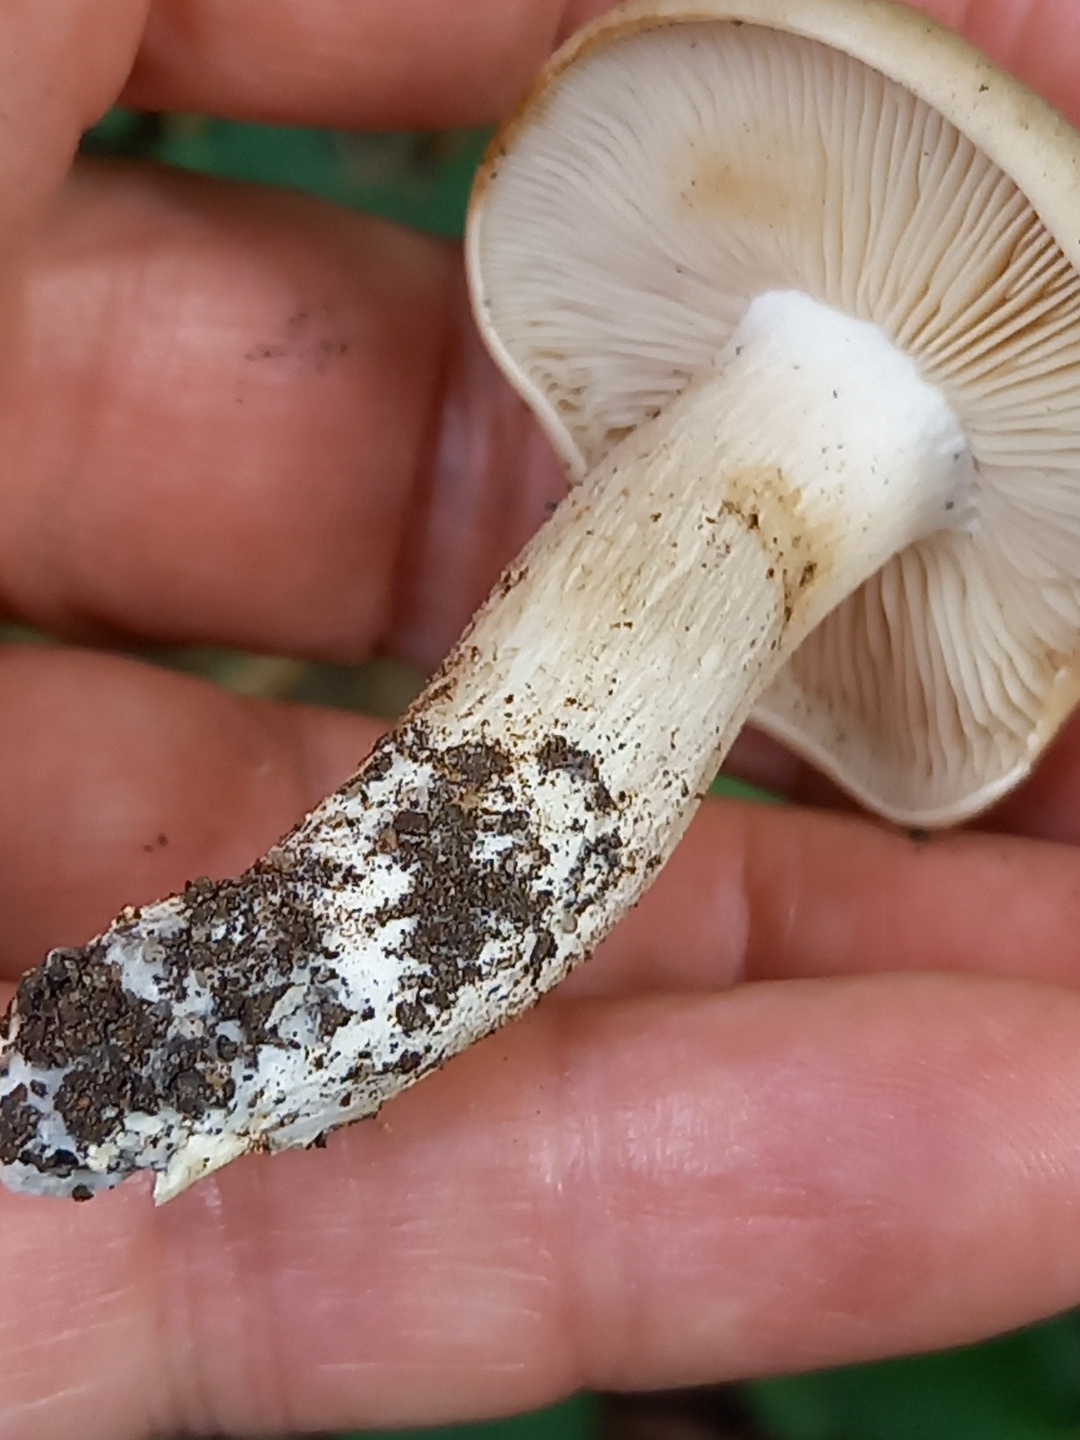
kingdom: Fungi
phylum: Basidiomycota
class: Agaricomycetes
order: Agaricales
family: Lyophyllaceae
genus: Lyophyllum
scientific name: Lyophyllum decastes
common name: røggrå gråblad
